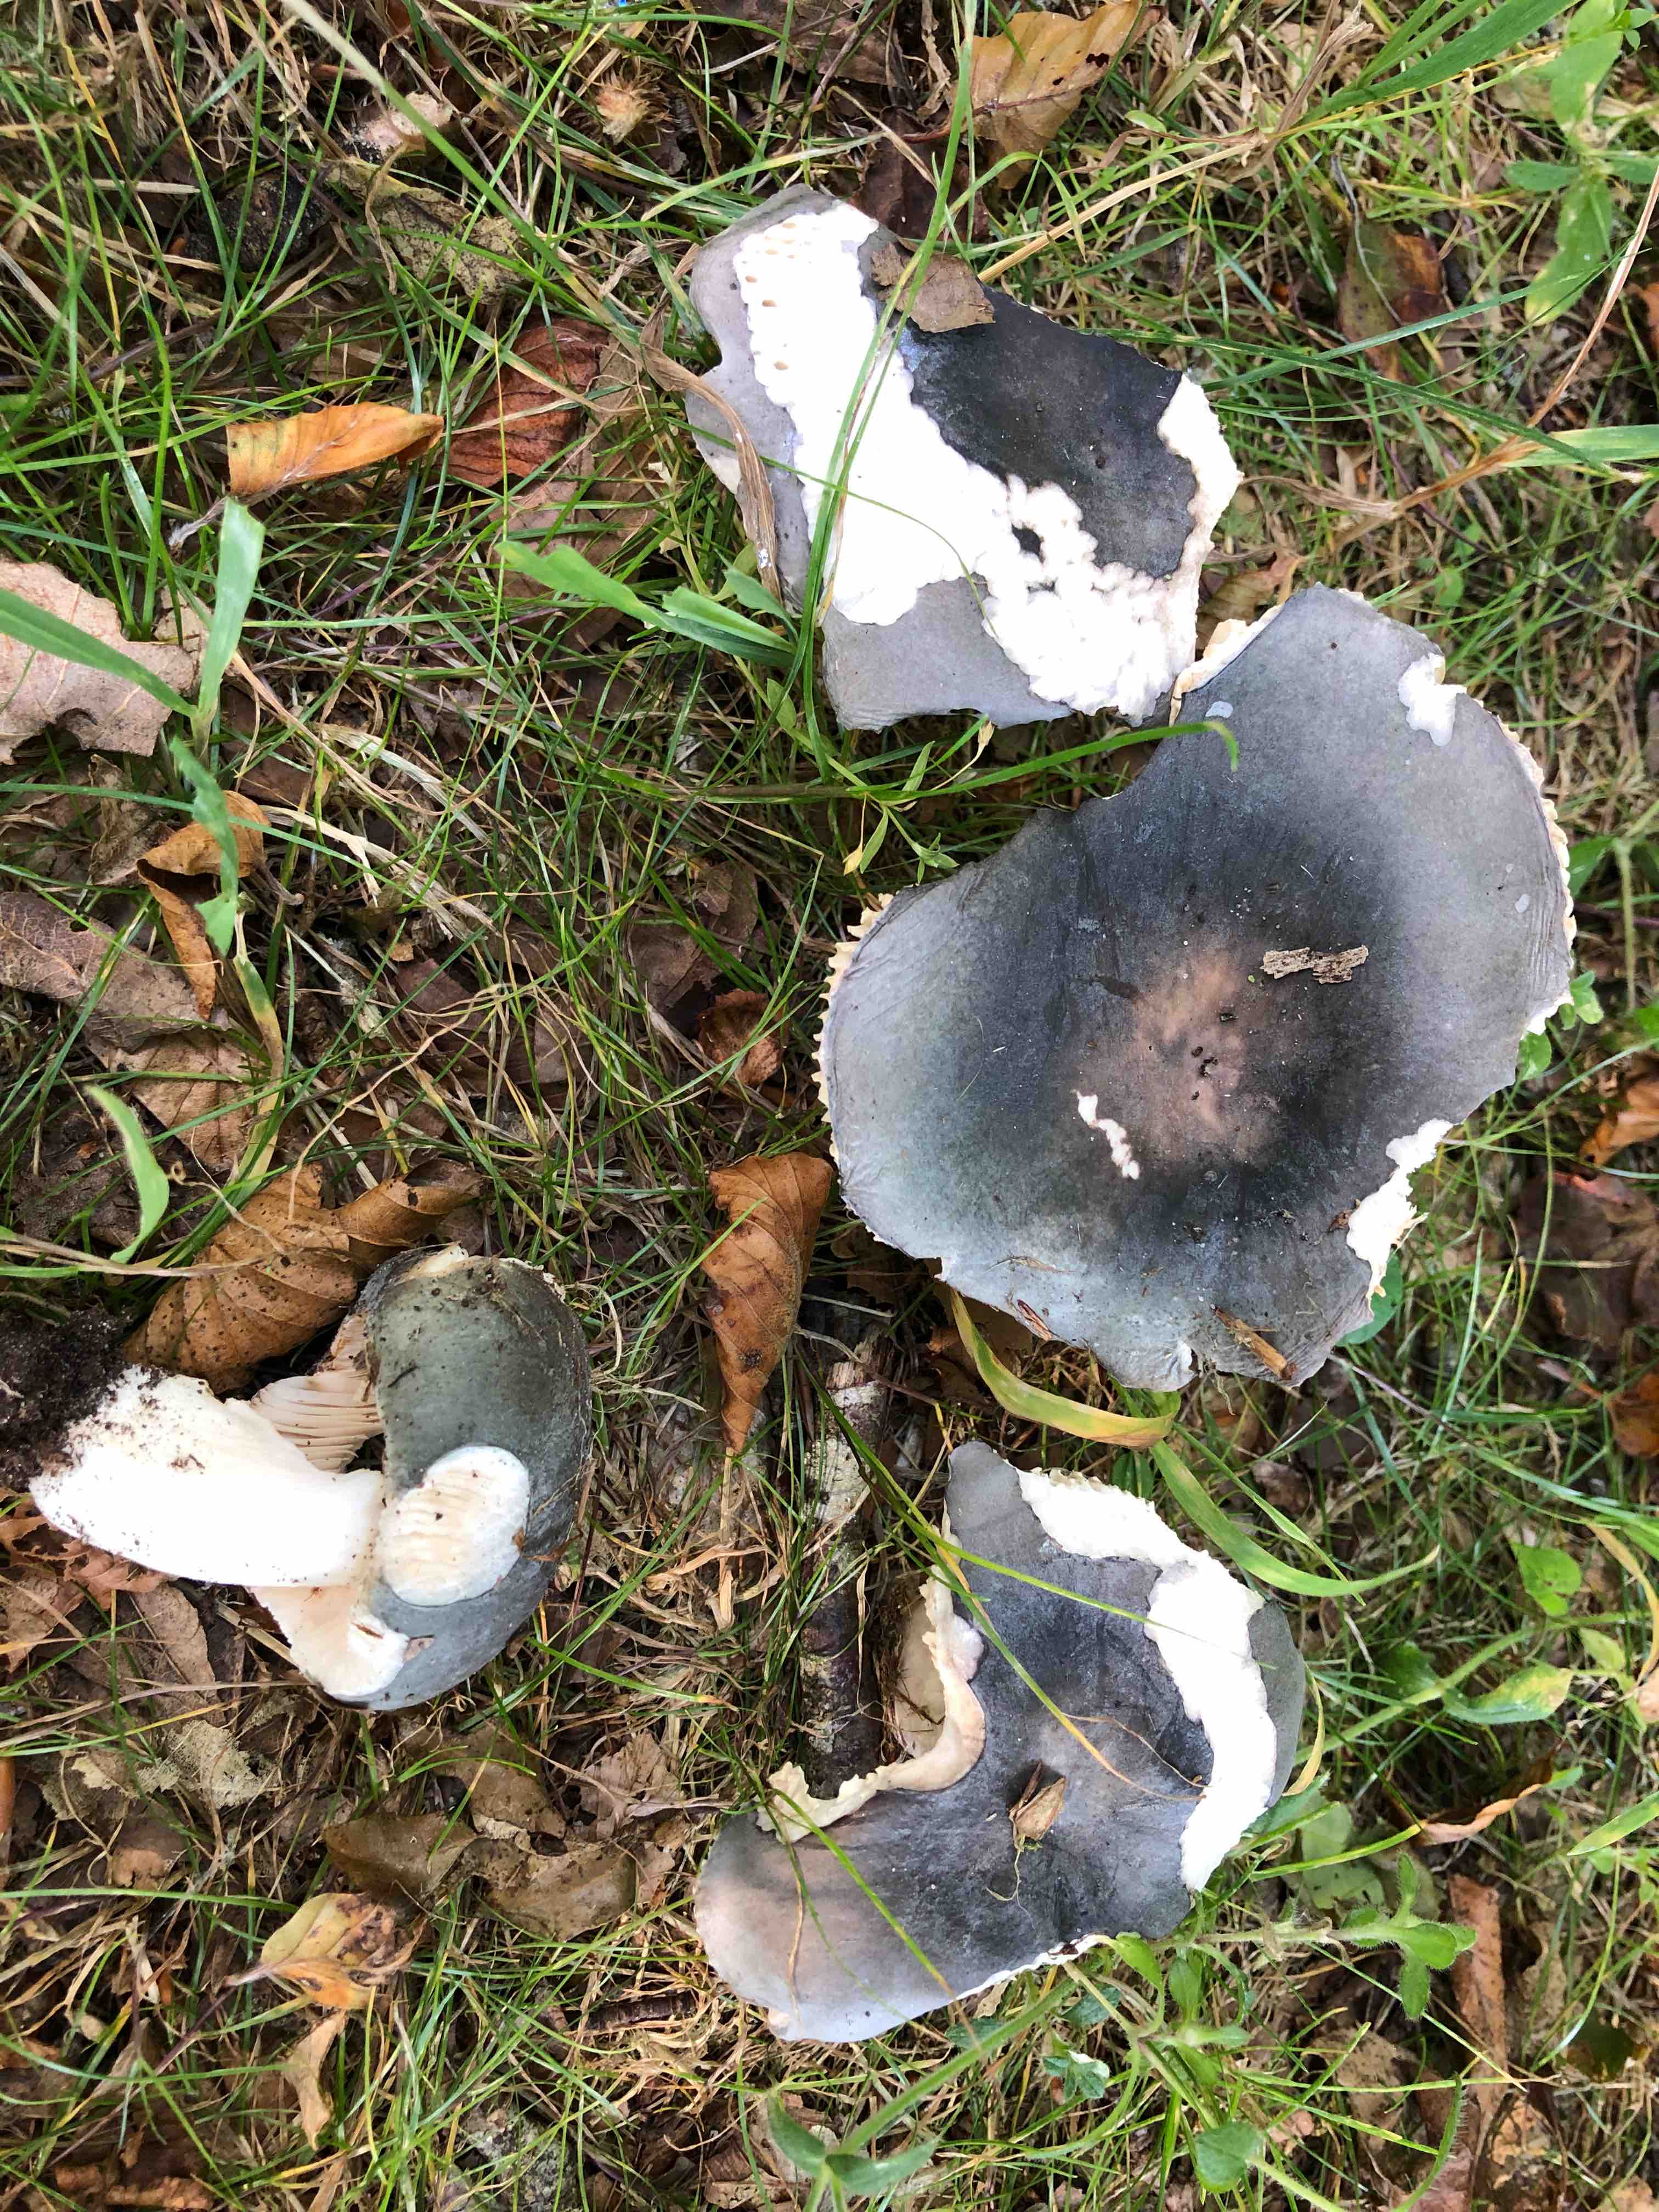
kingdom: Fungi
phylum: Basidiomycota
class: Agaricomycetes
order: Russulales
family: Russulaceae
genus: Russula
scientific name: Russula
